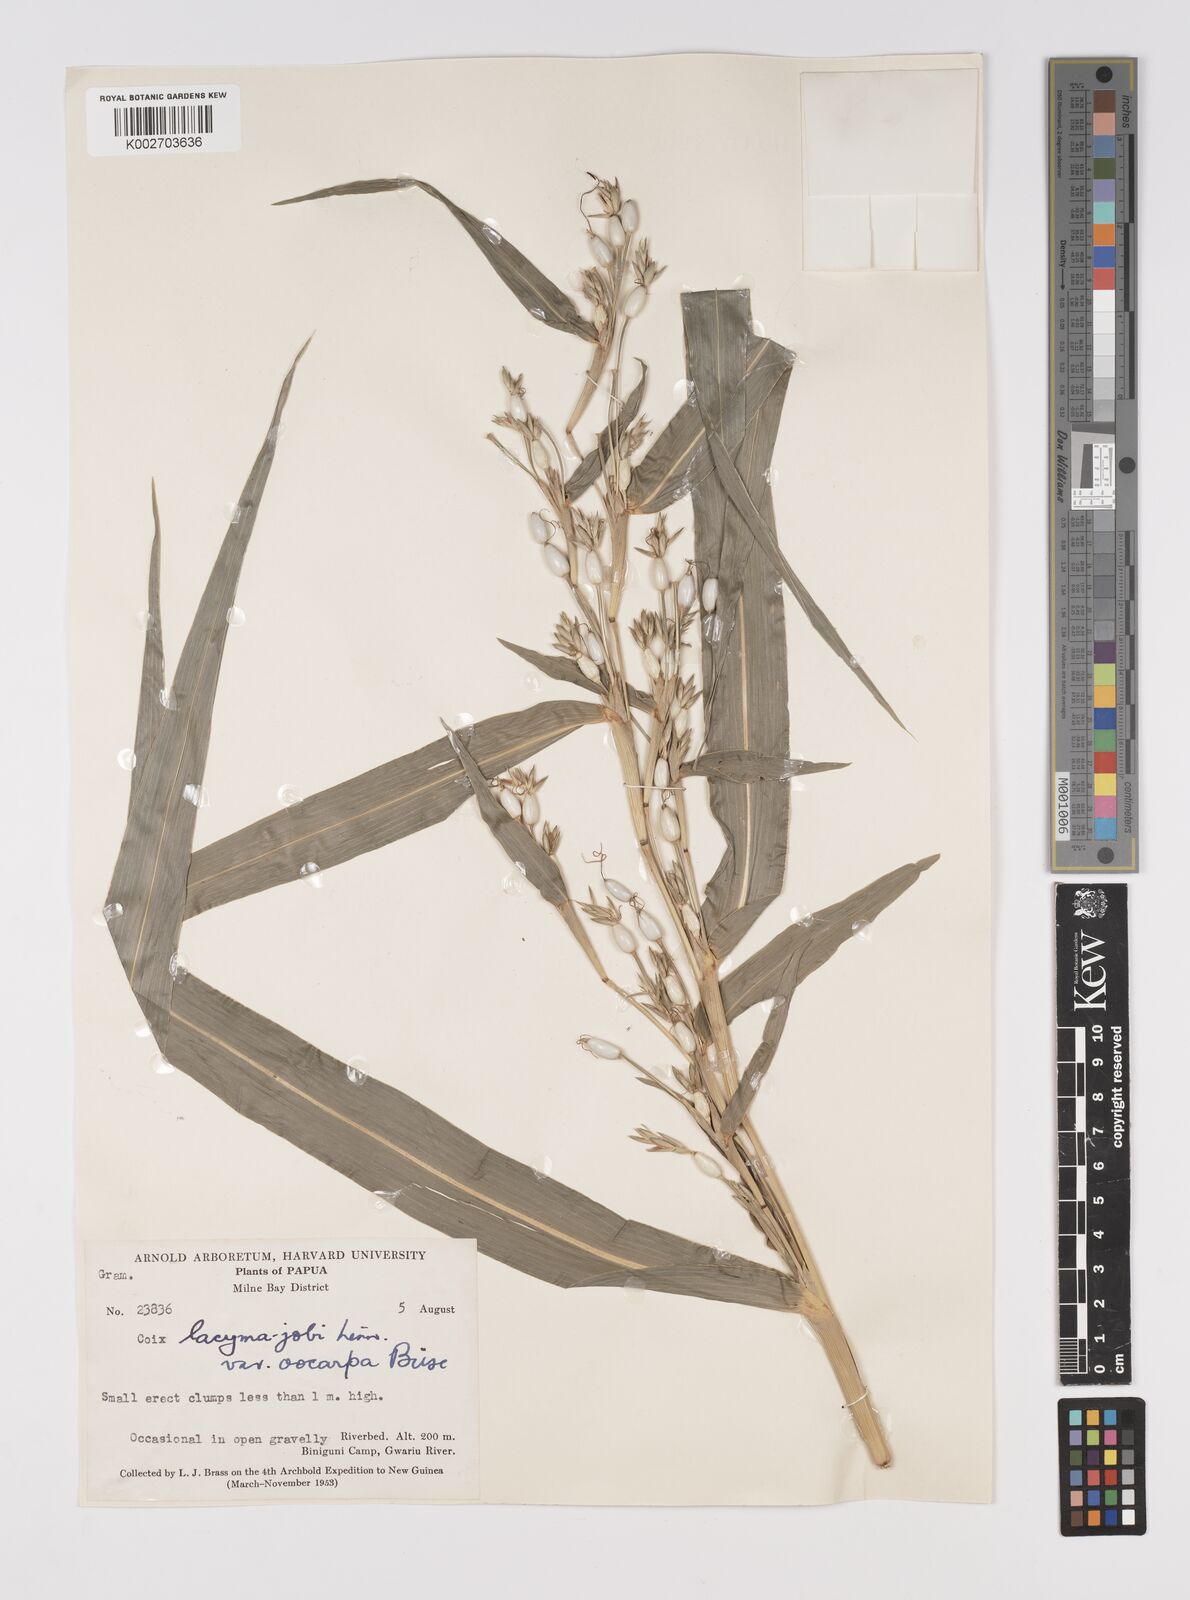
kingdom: Plantae
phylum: Tracheophyta
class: Liliopsida
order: Poales
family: Poaceae
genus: Coix
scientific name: Coix lacryma-jobi
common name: Job's tears
